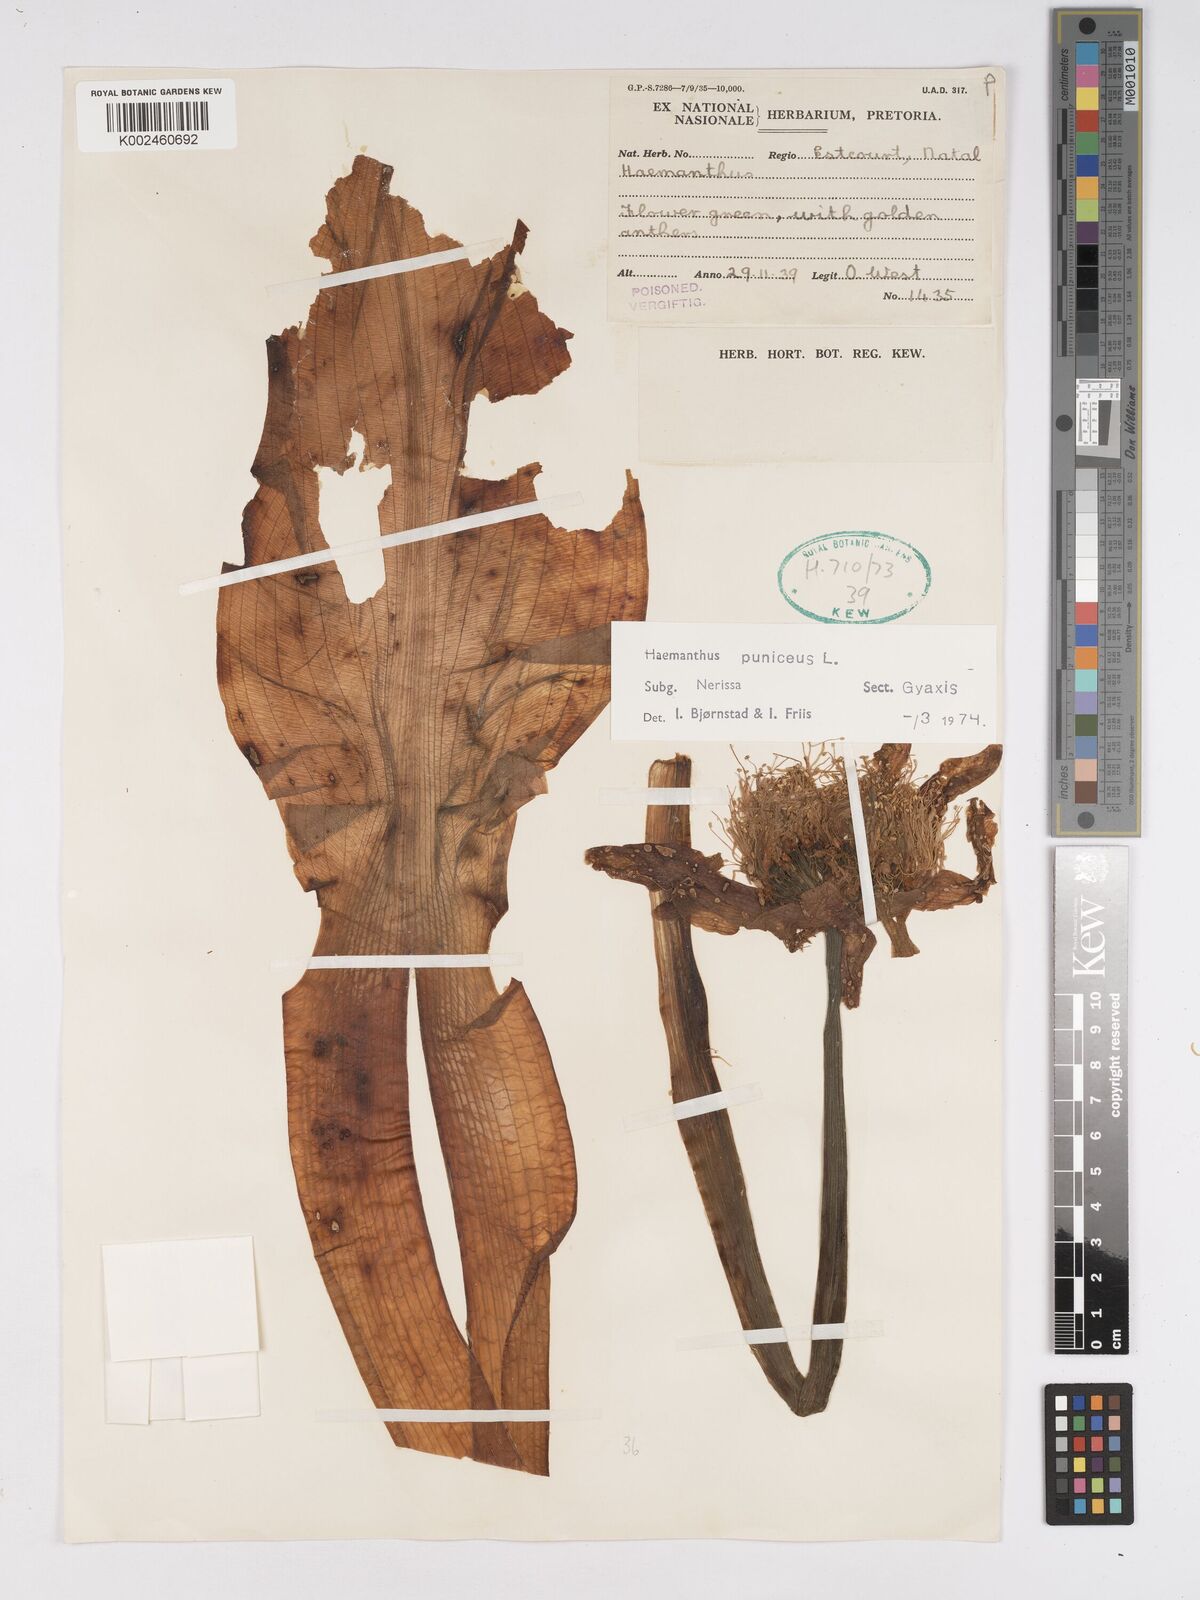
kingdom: Plantae
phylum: Tracheophyta
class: Liliopsida
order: Asparagales
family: Amaryllidaceae
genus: Scadoxus
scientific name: Scadoxus puniceus
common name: Royal-paintbrush
